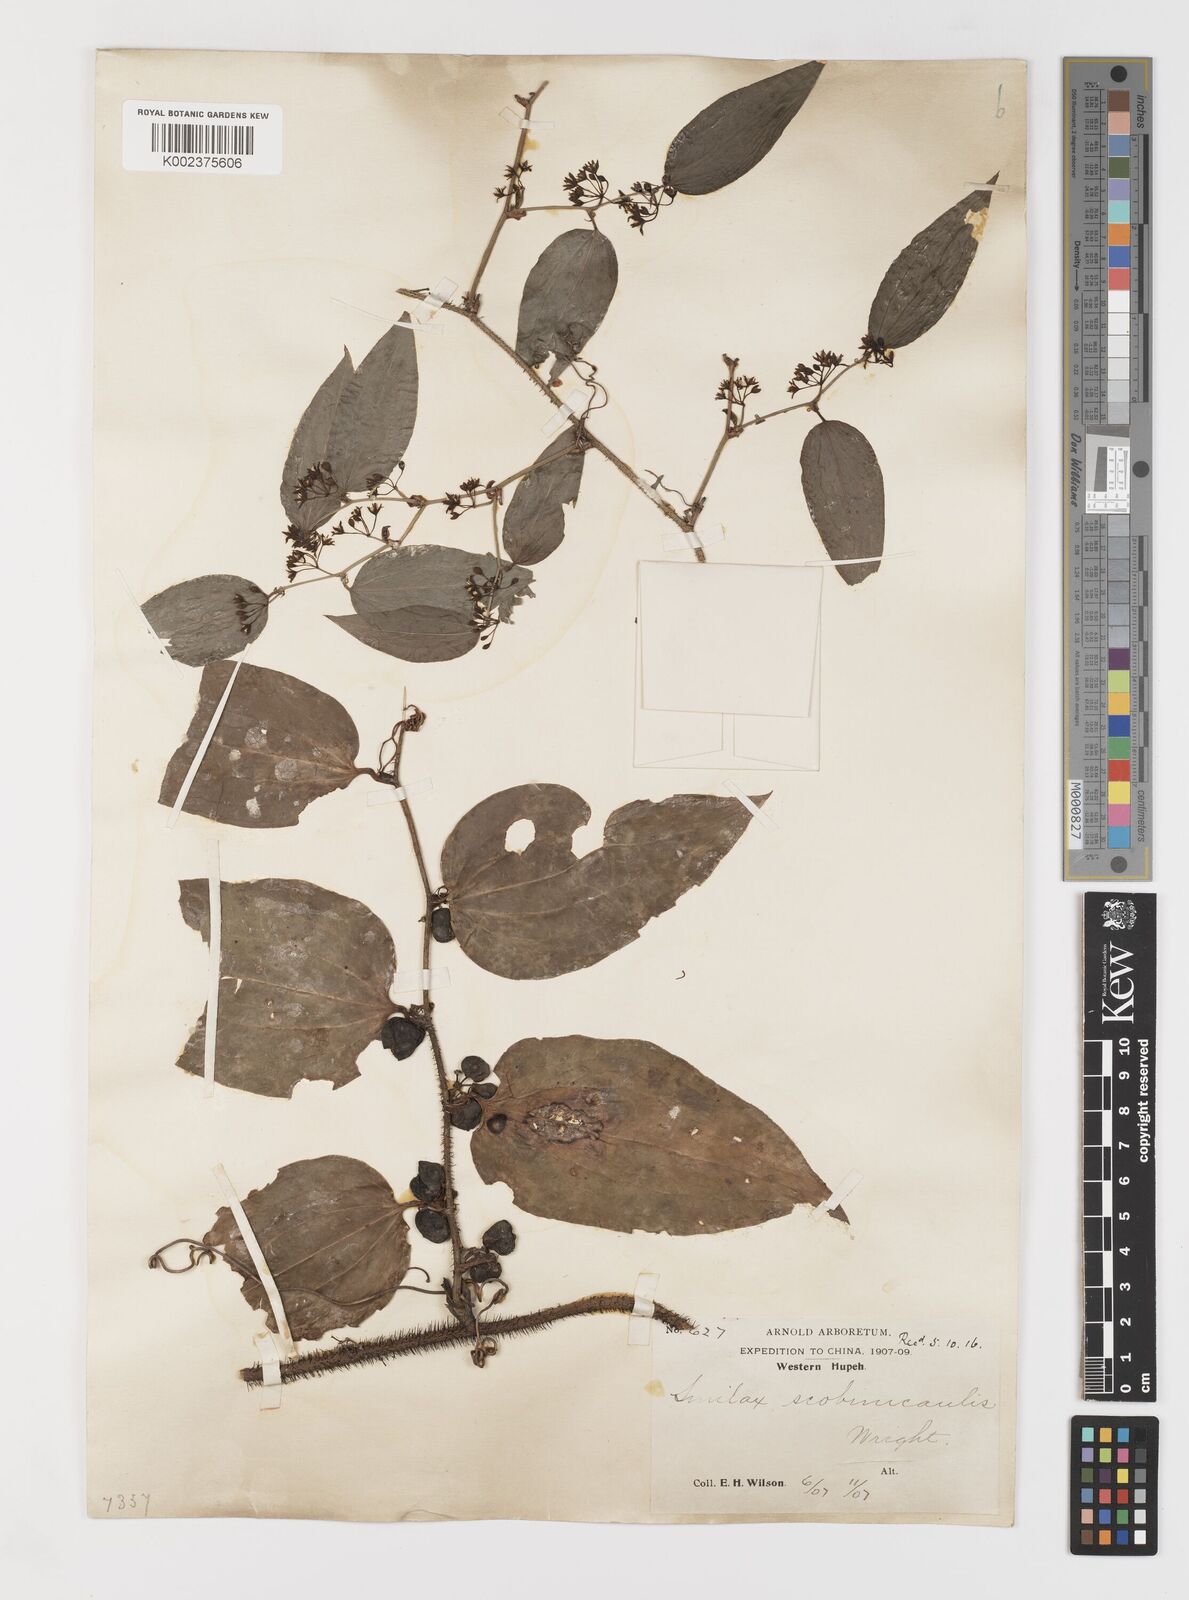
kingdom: Plantae
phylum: Tracheophyta
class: Liliopsida
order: Liliales
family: Smilacaceae
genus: Smilax
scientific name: Smilax scobinicaulis
